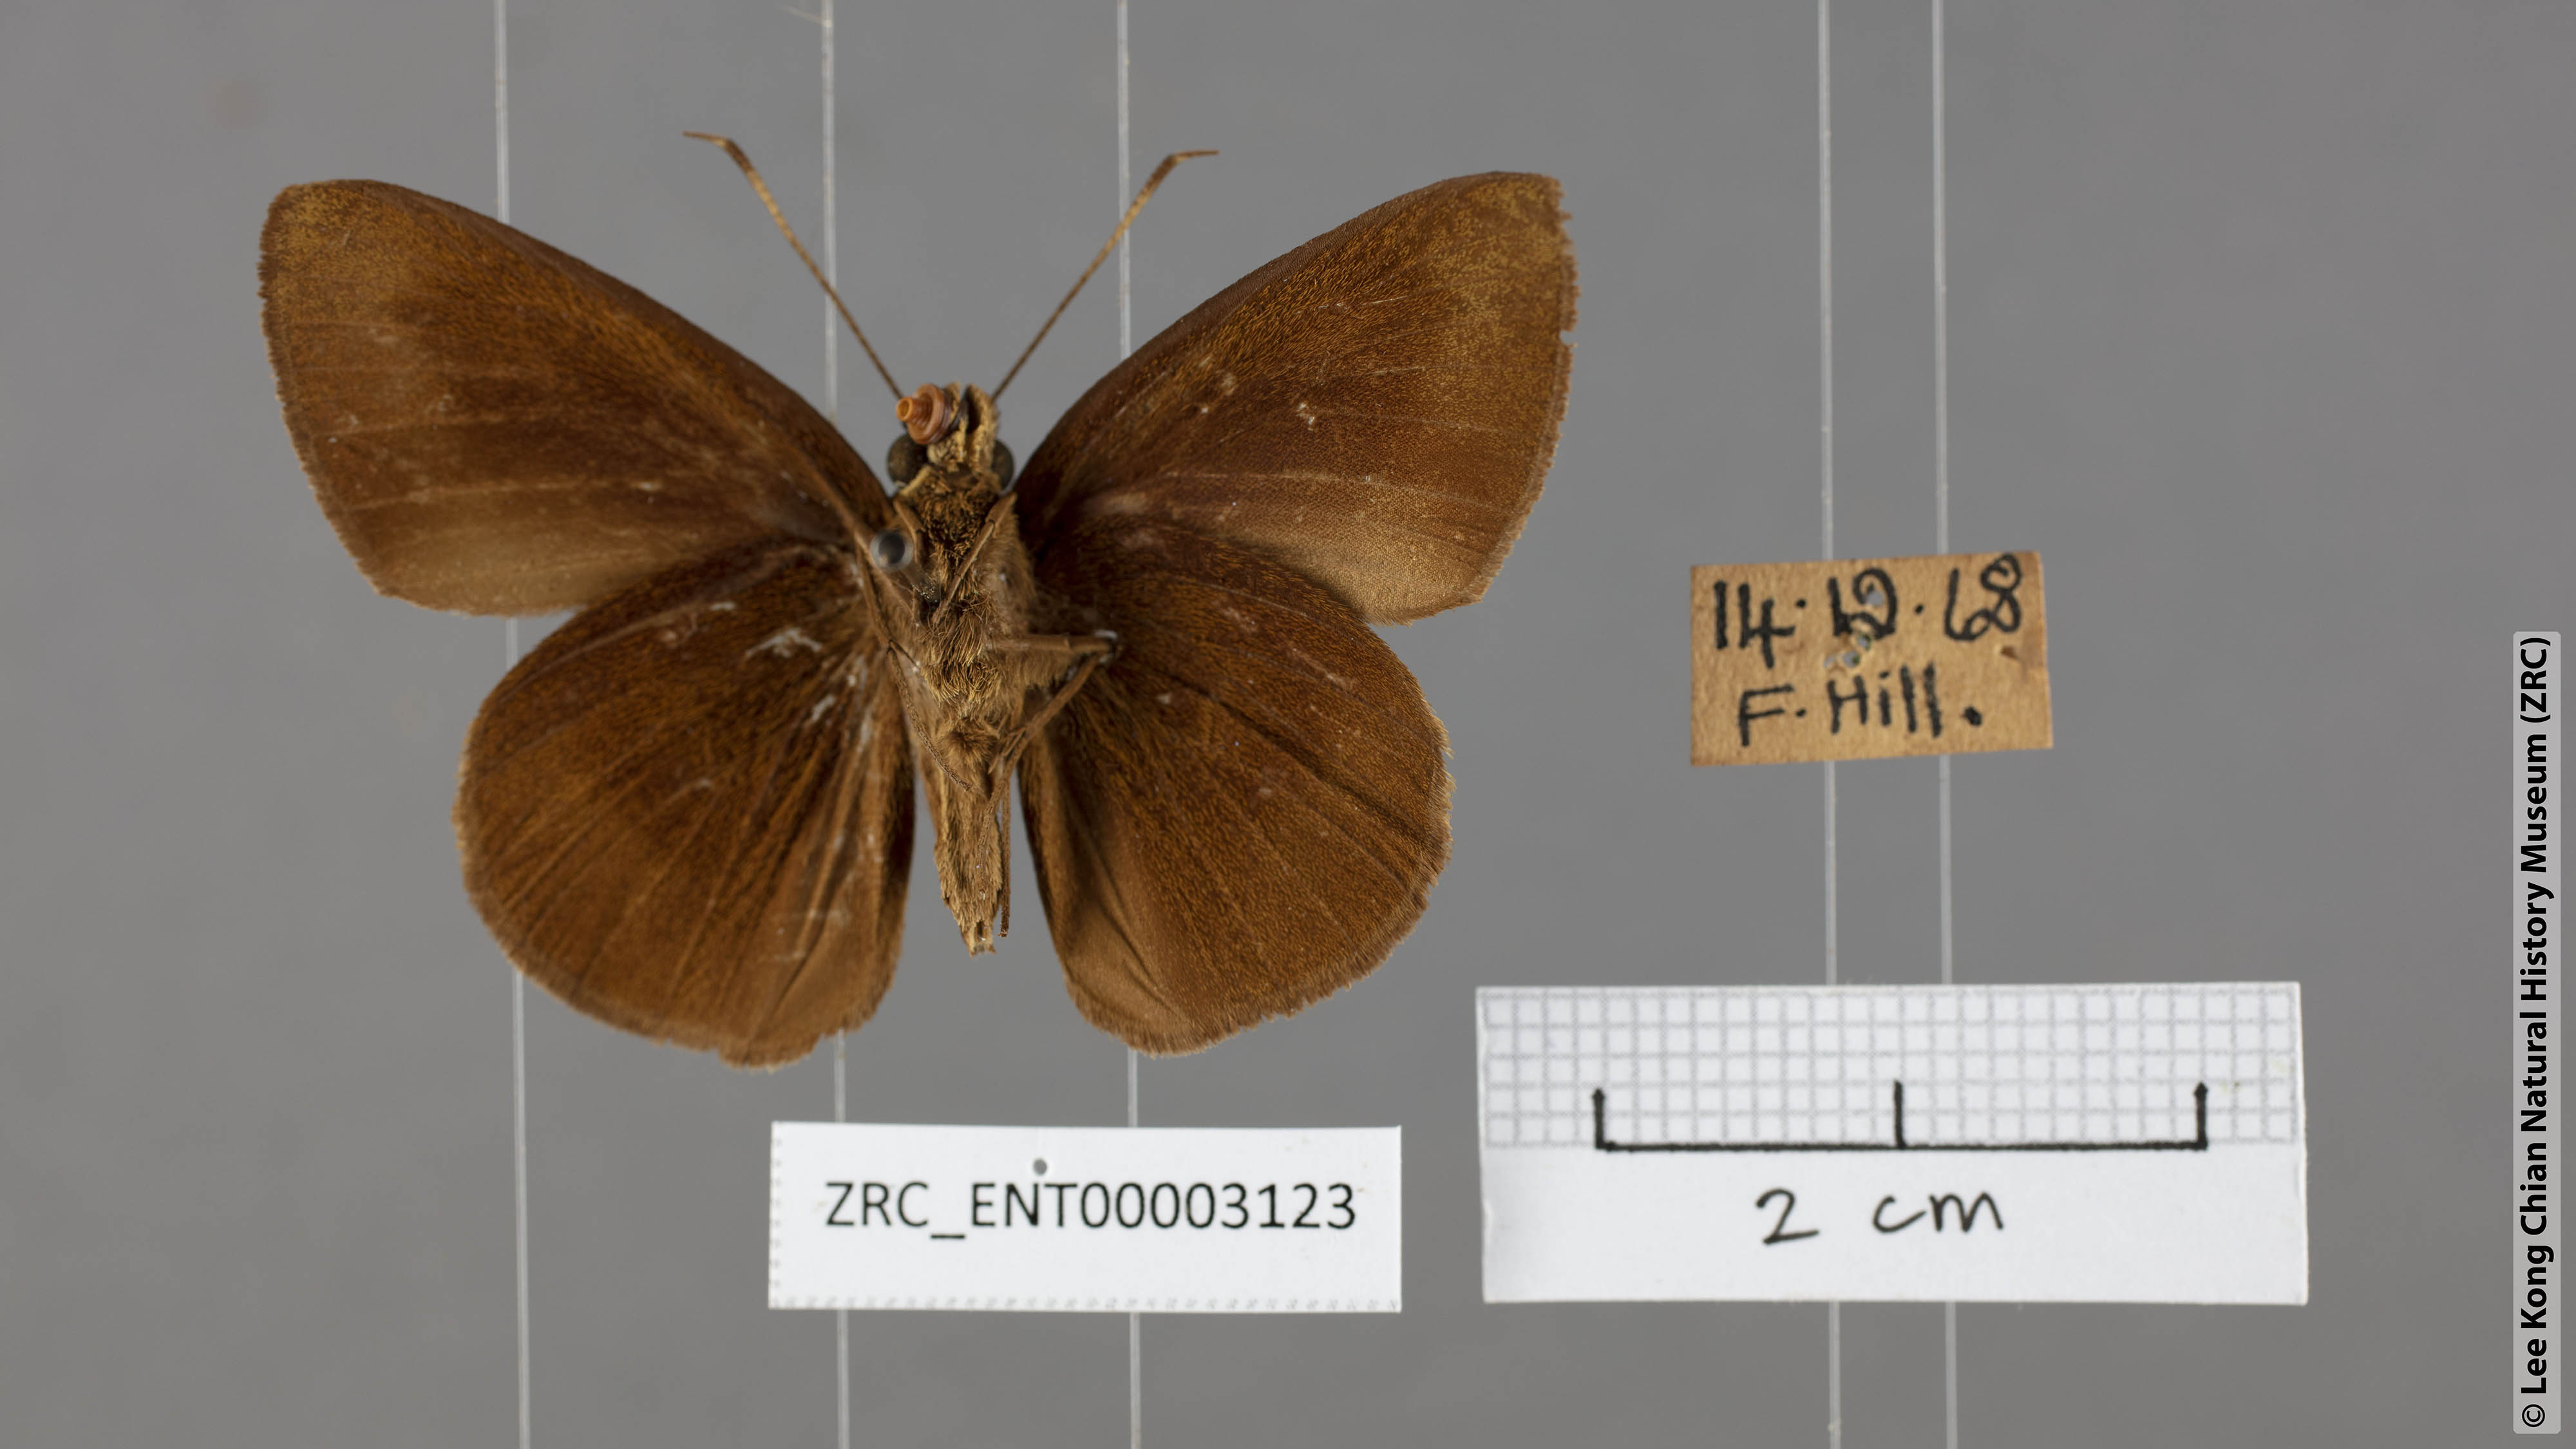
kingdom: Animalia
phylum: Arthropoda
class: Insecta
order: Lepidoptera
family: Hesperiidae
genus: Ancistroides
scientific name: Ancistroides nigrita
